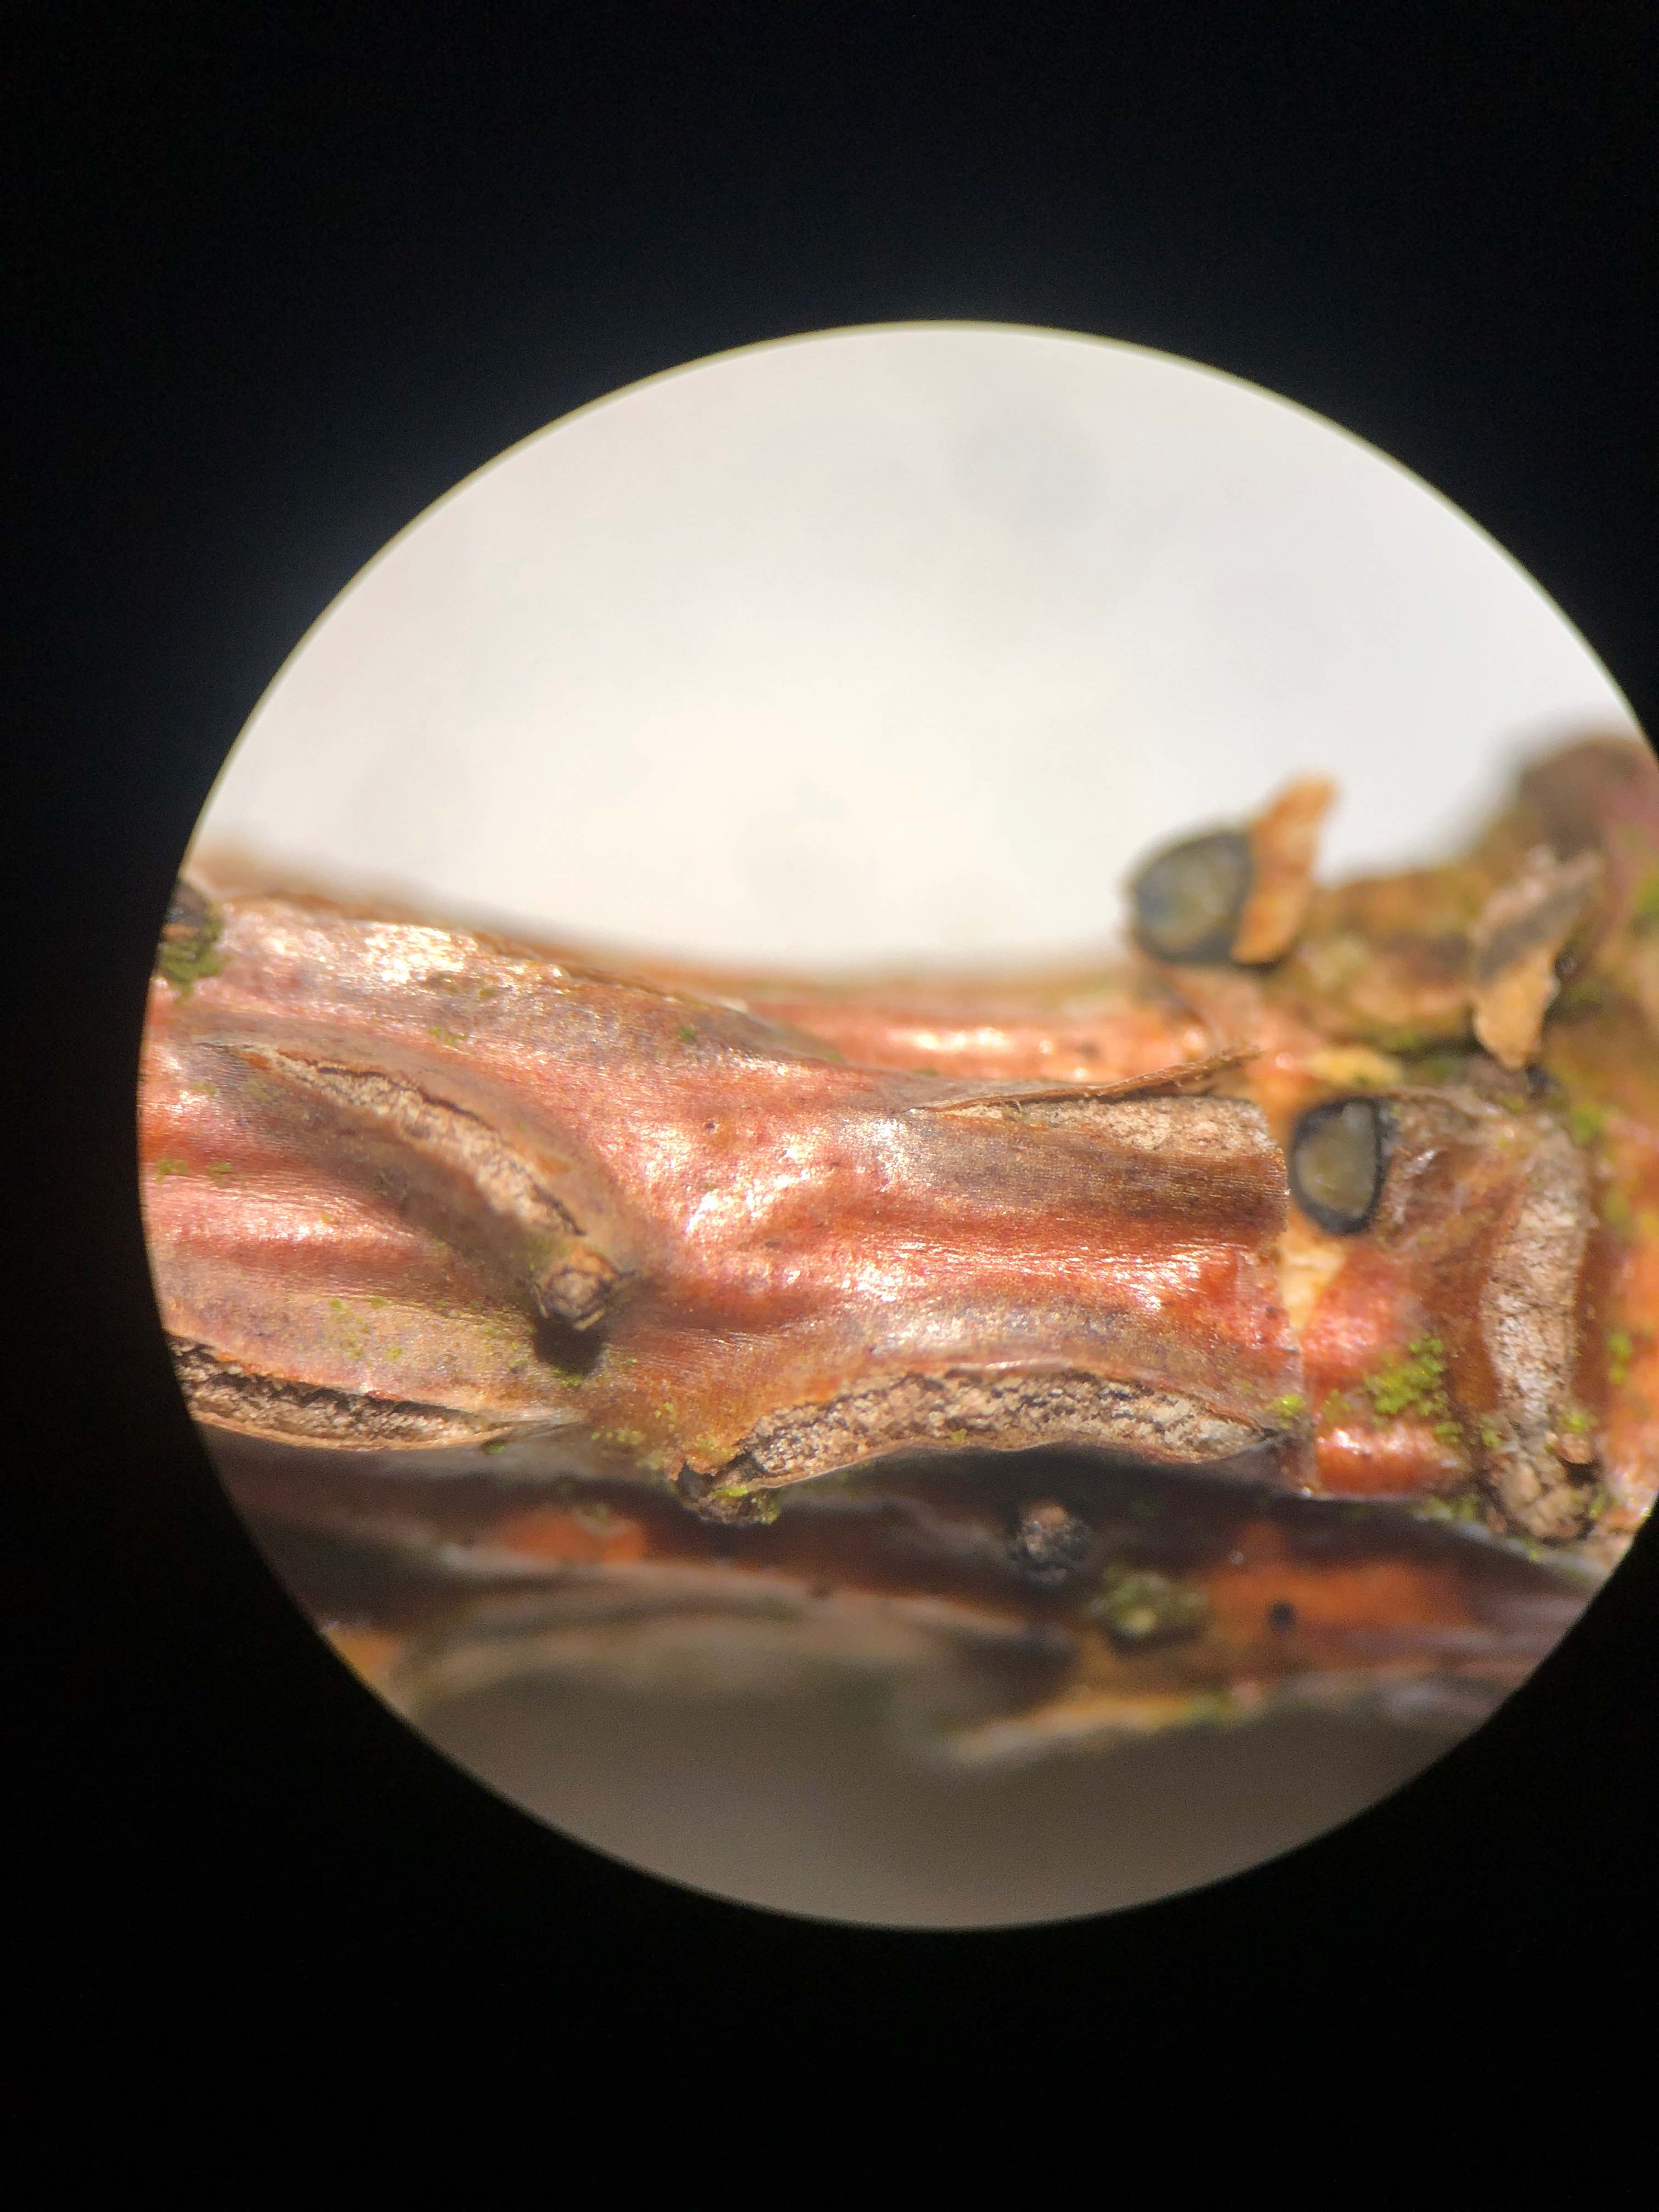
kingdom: Fungi
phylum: Ascomycota
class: Leotiomycetes
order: Rhytismatales
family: Rhytismataceae
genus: Colpoma
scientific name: Colpoma quercinum
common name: ege-sprækkeskive
